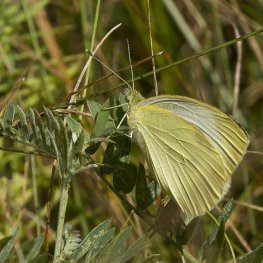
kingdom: Animalia
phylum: Arthropoda
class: Insecta
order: Lepidoptera
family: Pieridae
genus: Pieris
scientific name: Pieris rapae
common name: Cabbage White
